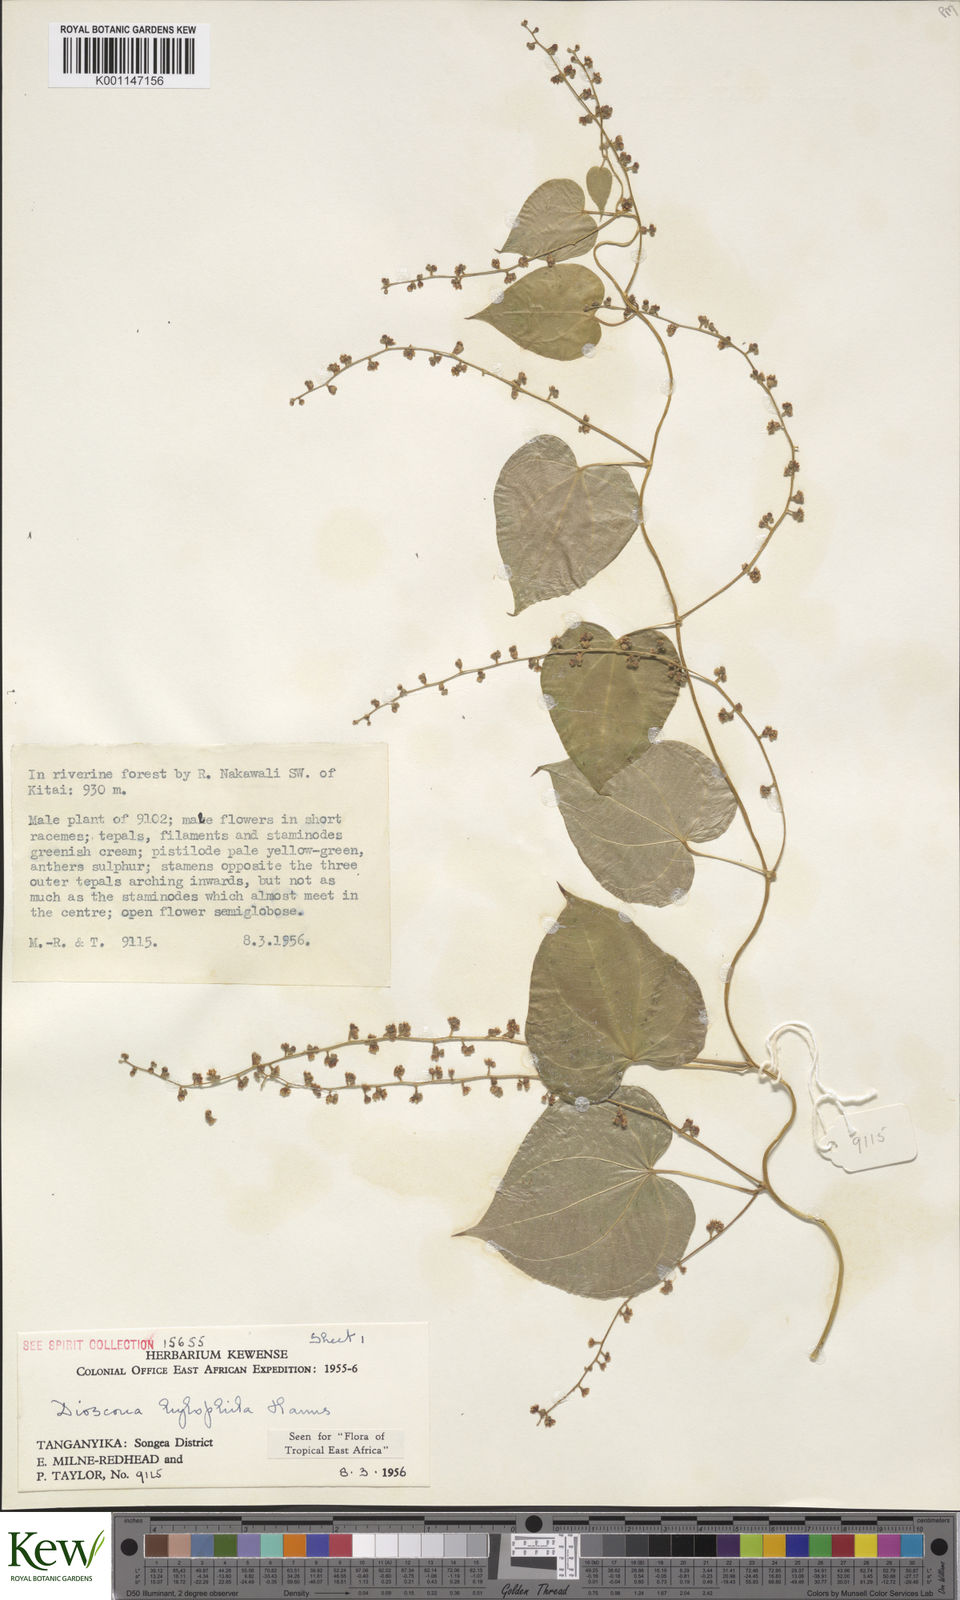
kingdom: Plantae
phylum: Tracheophyta
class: Liliopsida
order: Dioscoreales
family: Dioscoreaceae
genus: Dioscorea
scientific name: Dioscorea
